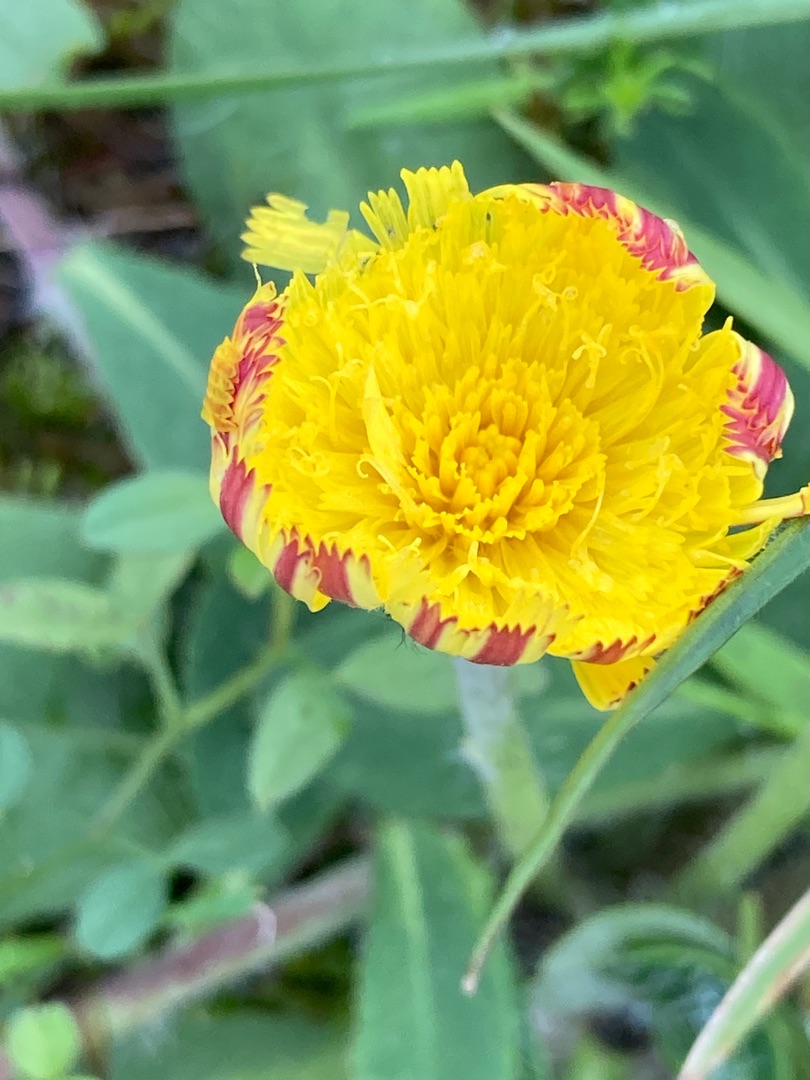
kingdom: Plantae
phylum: Tracheophyta
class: Magnoliopsida
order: Asterales
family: Asteraceae
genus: Pilosella
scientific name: Pilosella officinarum
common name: Håret høgeurt
